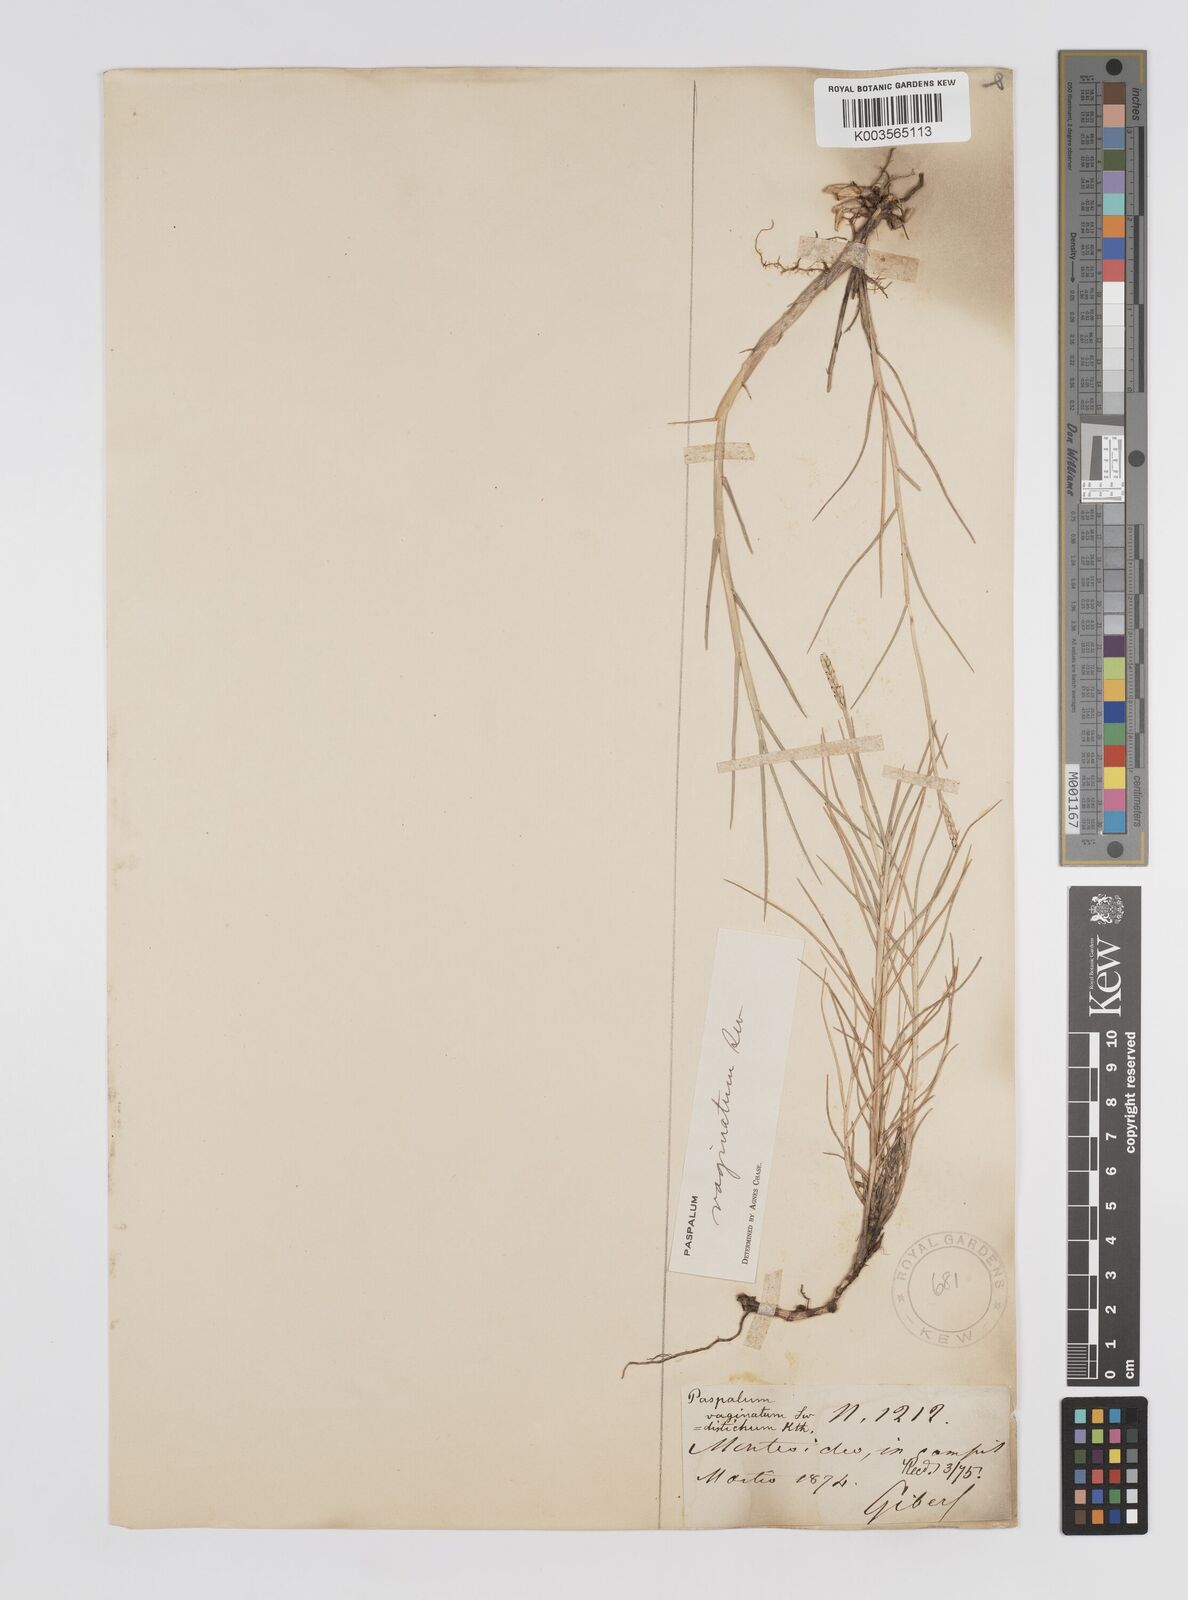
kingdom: Plantae
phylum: Tracheophyta
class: Liliopsida
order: Poales
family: Poaceae
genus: Paspalum
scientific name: Paspalum vaginatum
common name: Seashore paspalum
